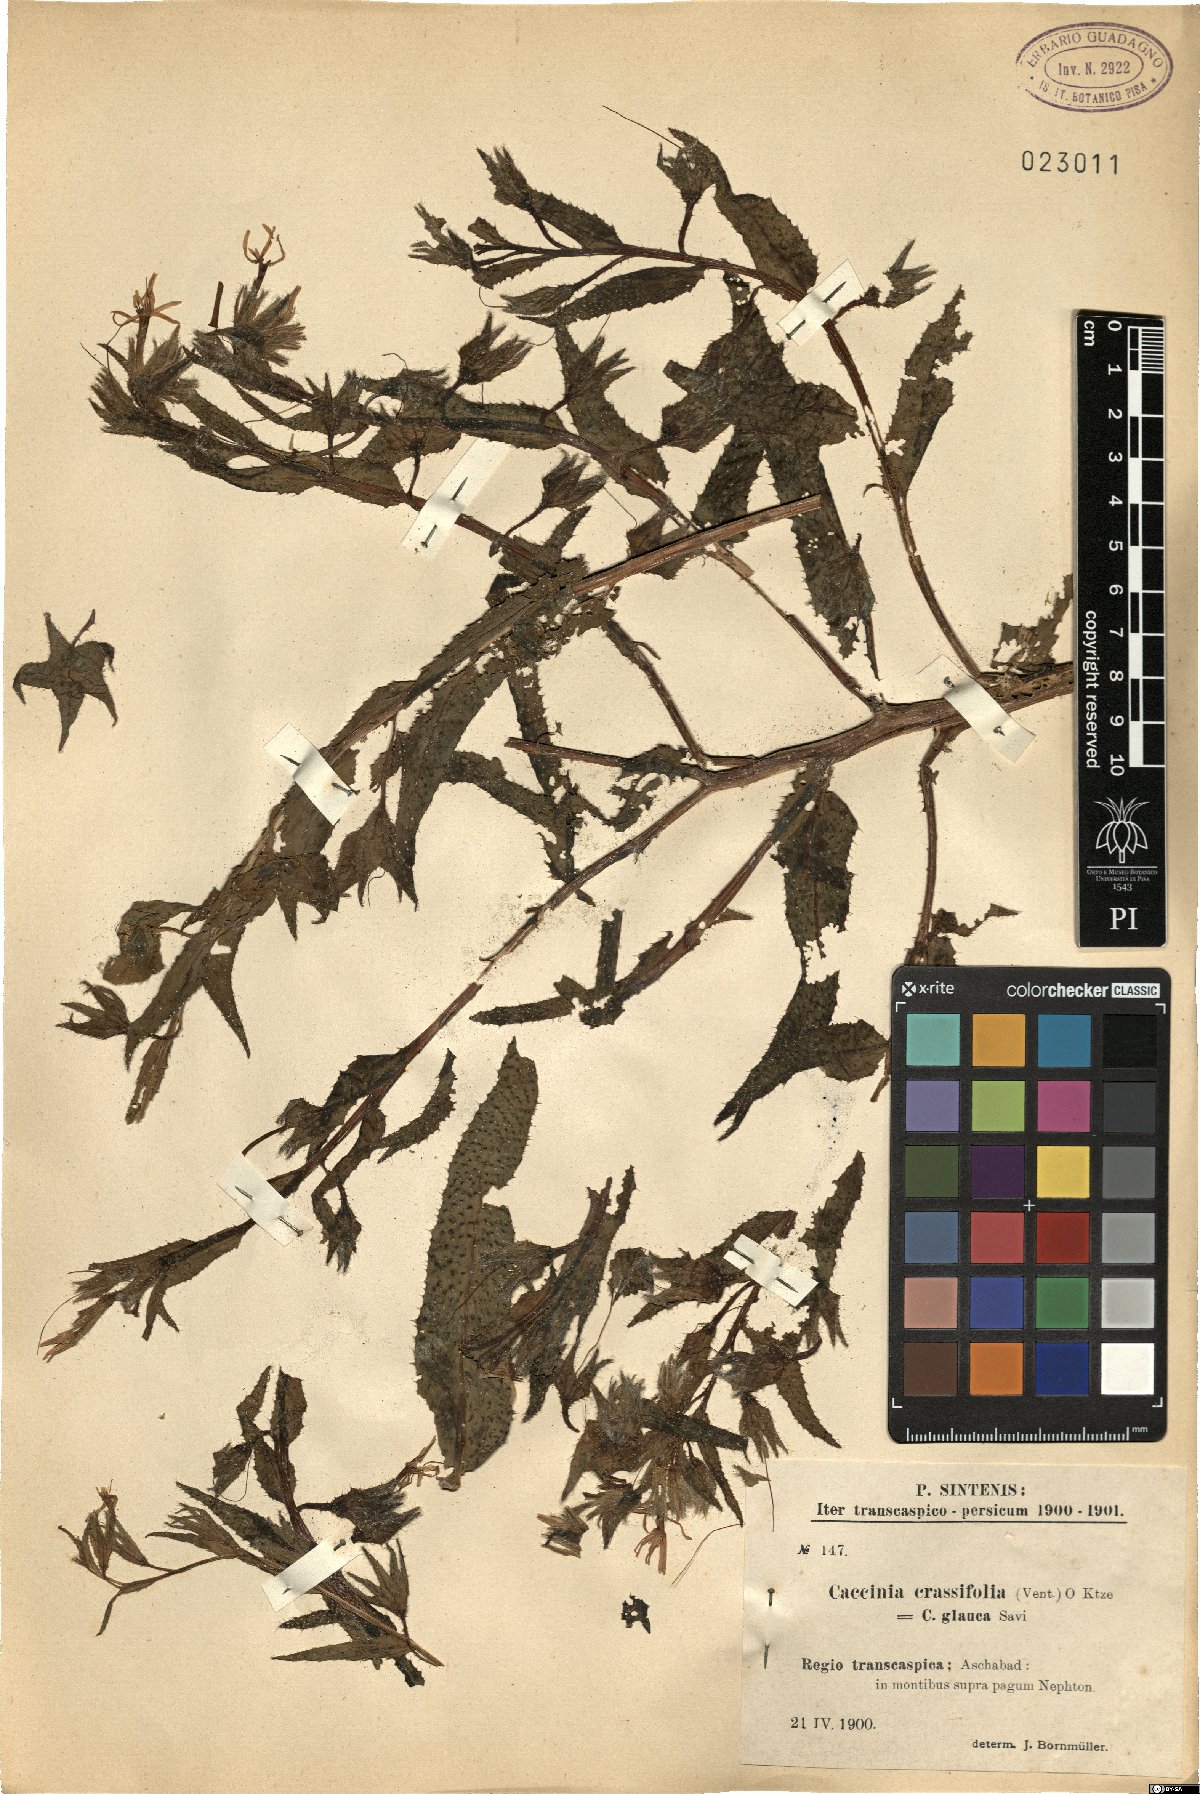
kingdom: Plantae
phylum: Tracheophyta
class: Magnoliopsida
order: Boraginales
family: Boraginaceae
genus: Caccinia
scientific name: Caccinia macranthera
